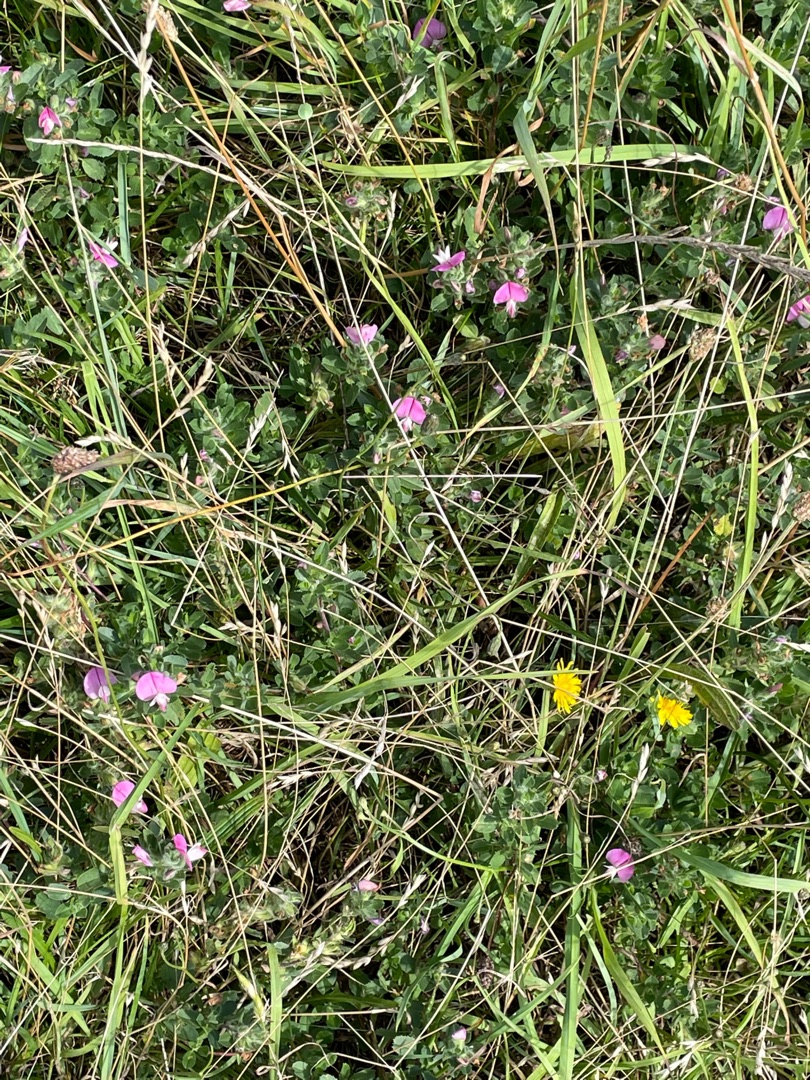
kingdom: Plantae
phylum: Tracheophyta
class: Magnoliopsida
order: Fabales
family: Fabaceae
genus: Ononis
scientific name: Ononis spinosa
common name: Mark-krageklo
